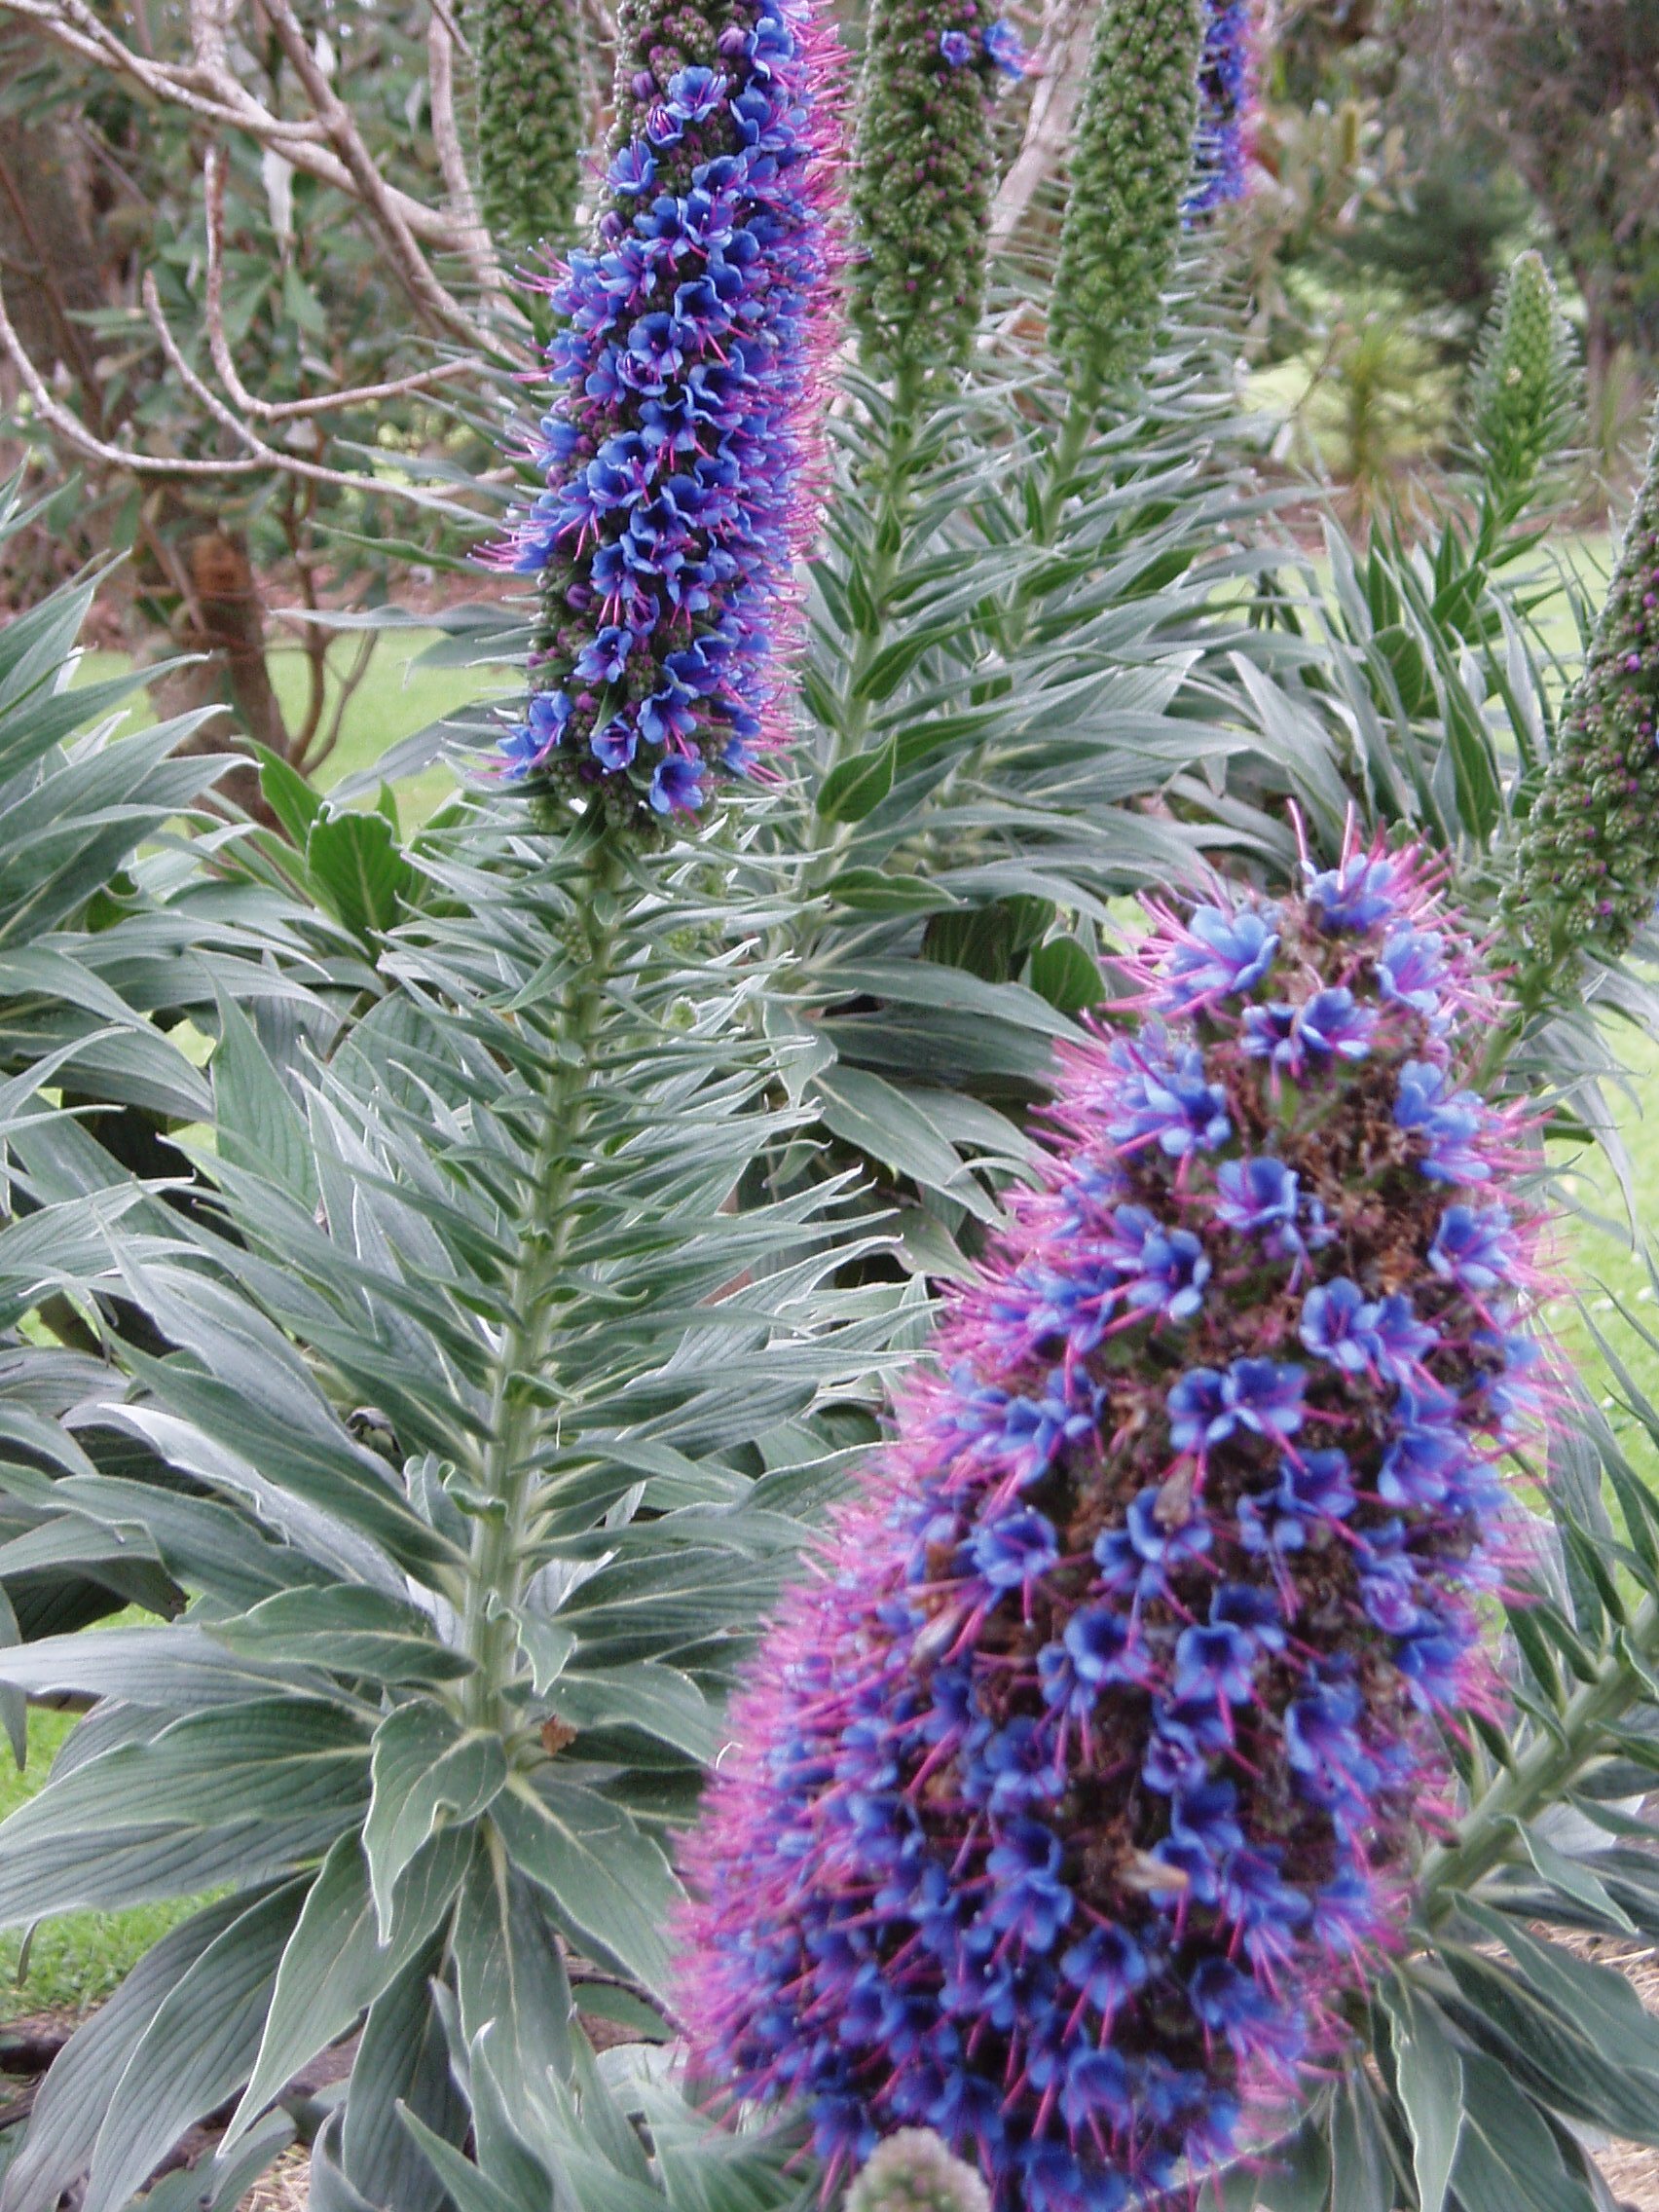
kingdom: Plantae
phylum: Tracheophyta
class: Magnoliopsida
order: Boraginales
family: Boraginaceae
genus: Echium
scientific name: Echium candicans
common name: Pride of madeira
